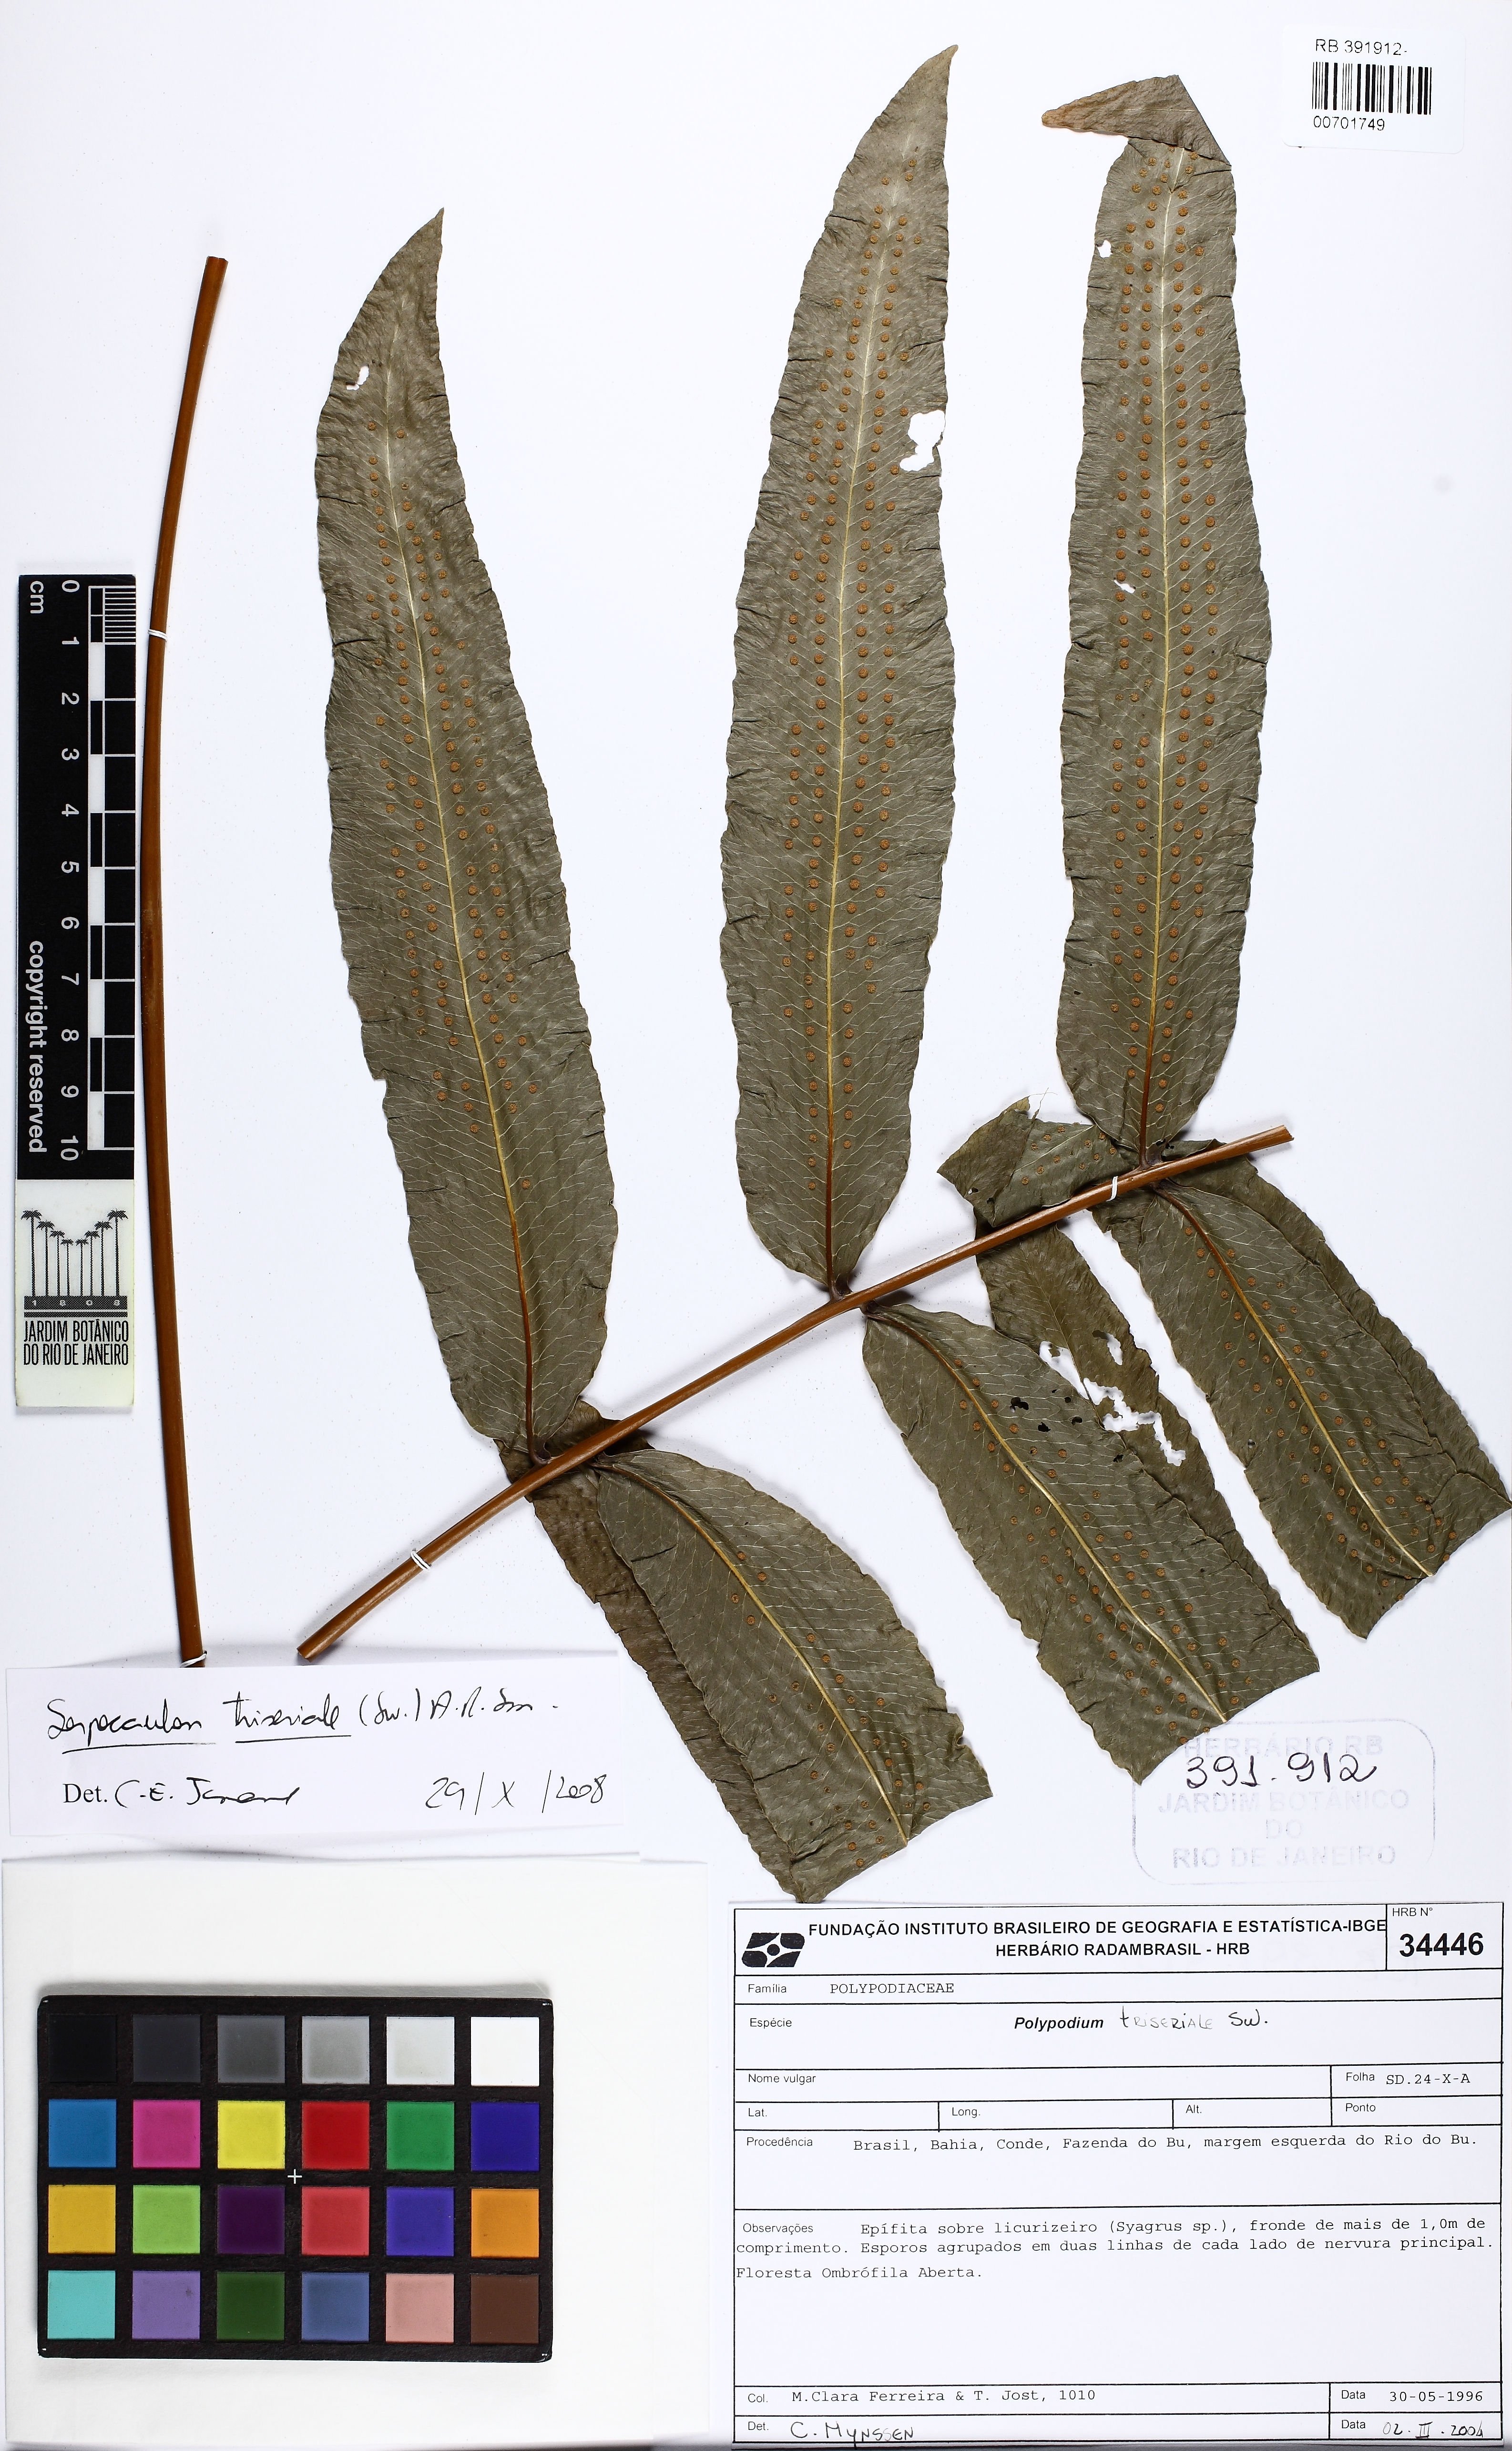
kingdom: Plantae
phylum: Tracheophyta
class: Polypodiopsida
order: Polypodiales
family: Polypodiaceae
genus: Serpocaulon
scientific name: Serpocaulon triseriale
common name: Angle-vein fern
